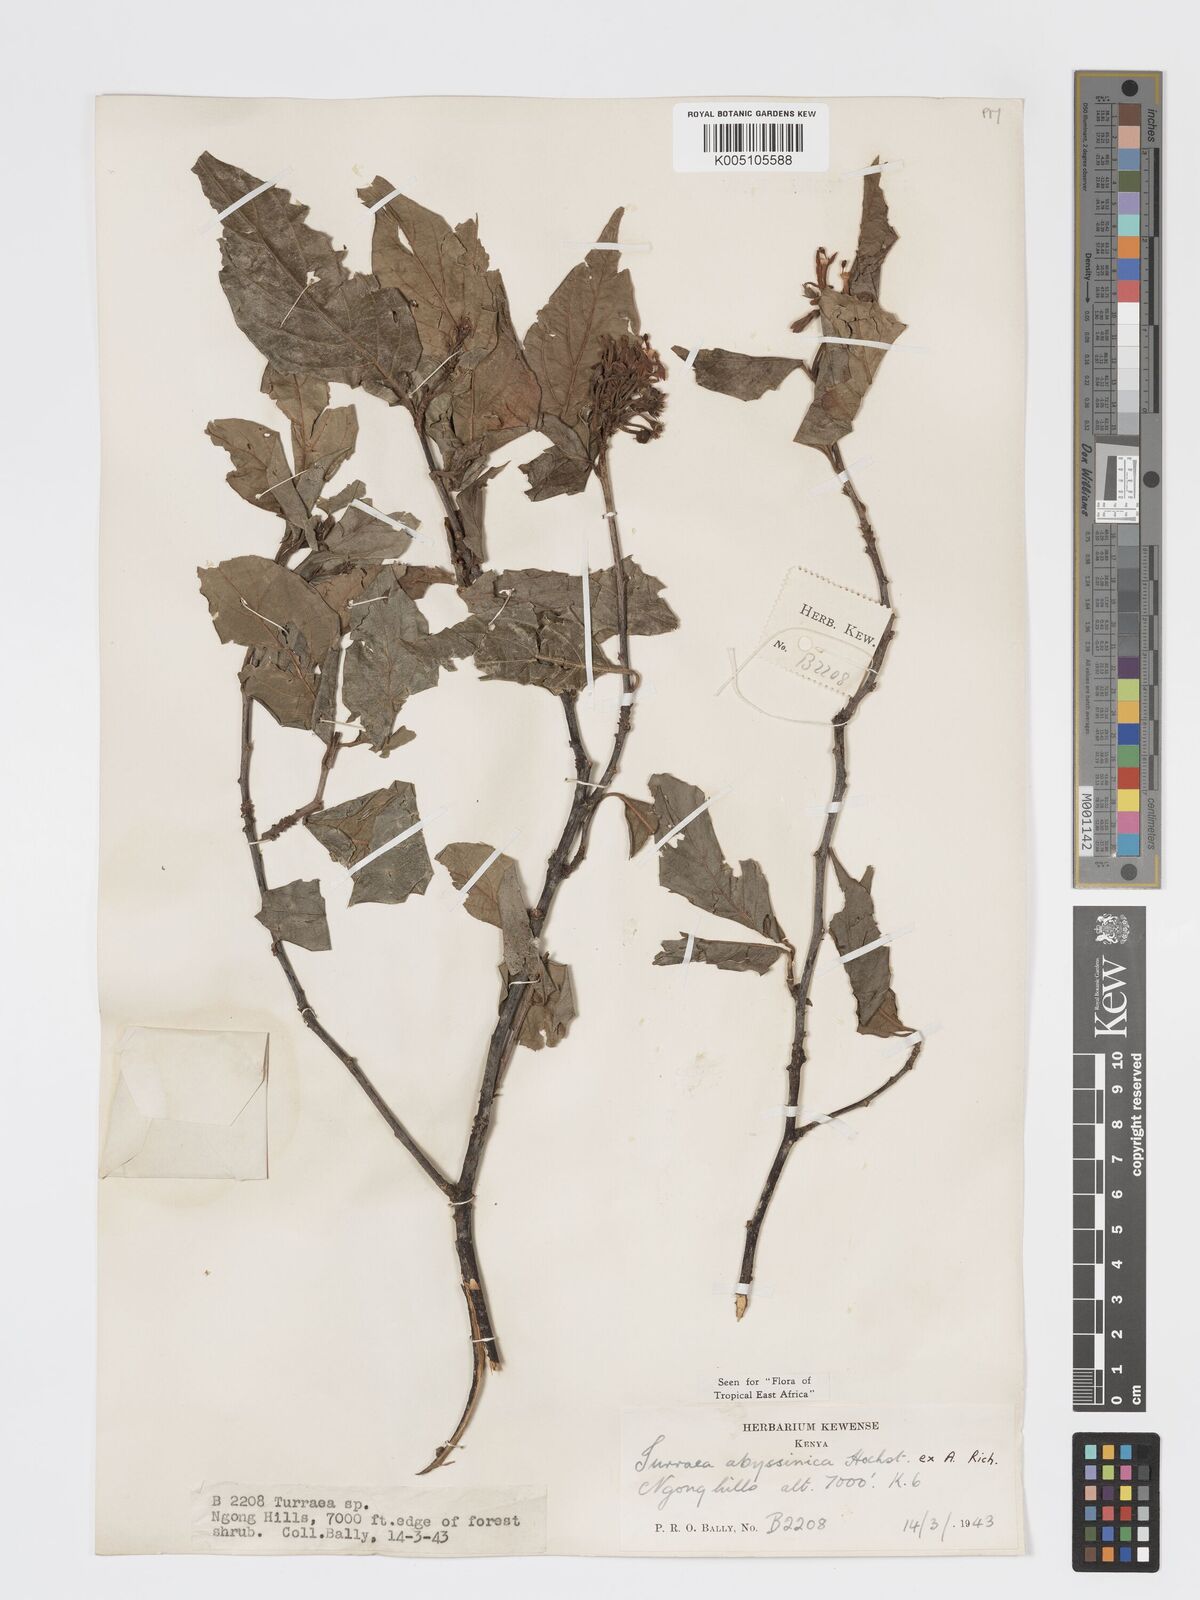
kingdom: Plantae
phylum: Tracheophyta
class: Magnoliopsida
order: Sapindales
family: Meliaceae
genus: Turraea
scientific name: Turraea abyssinica
